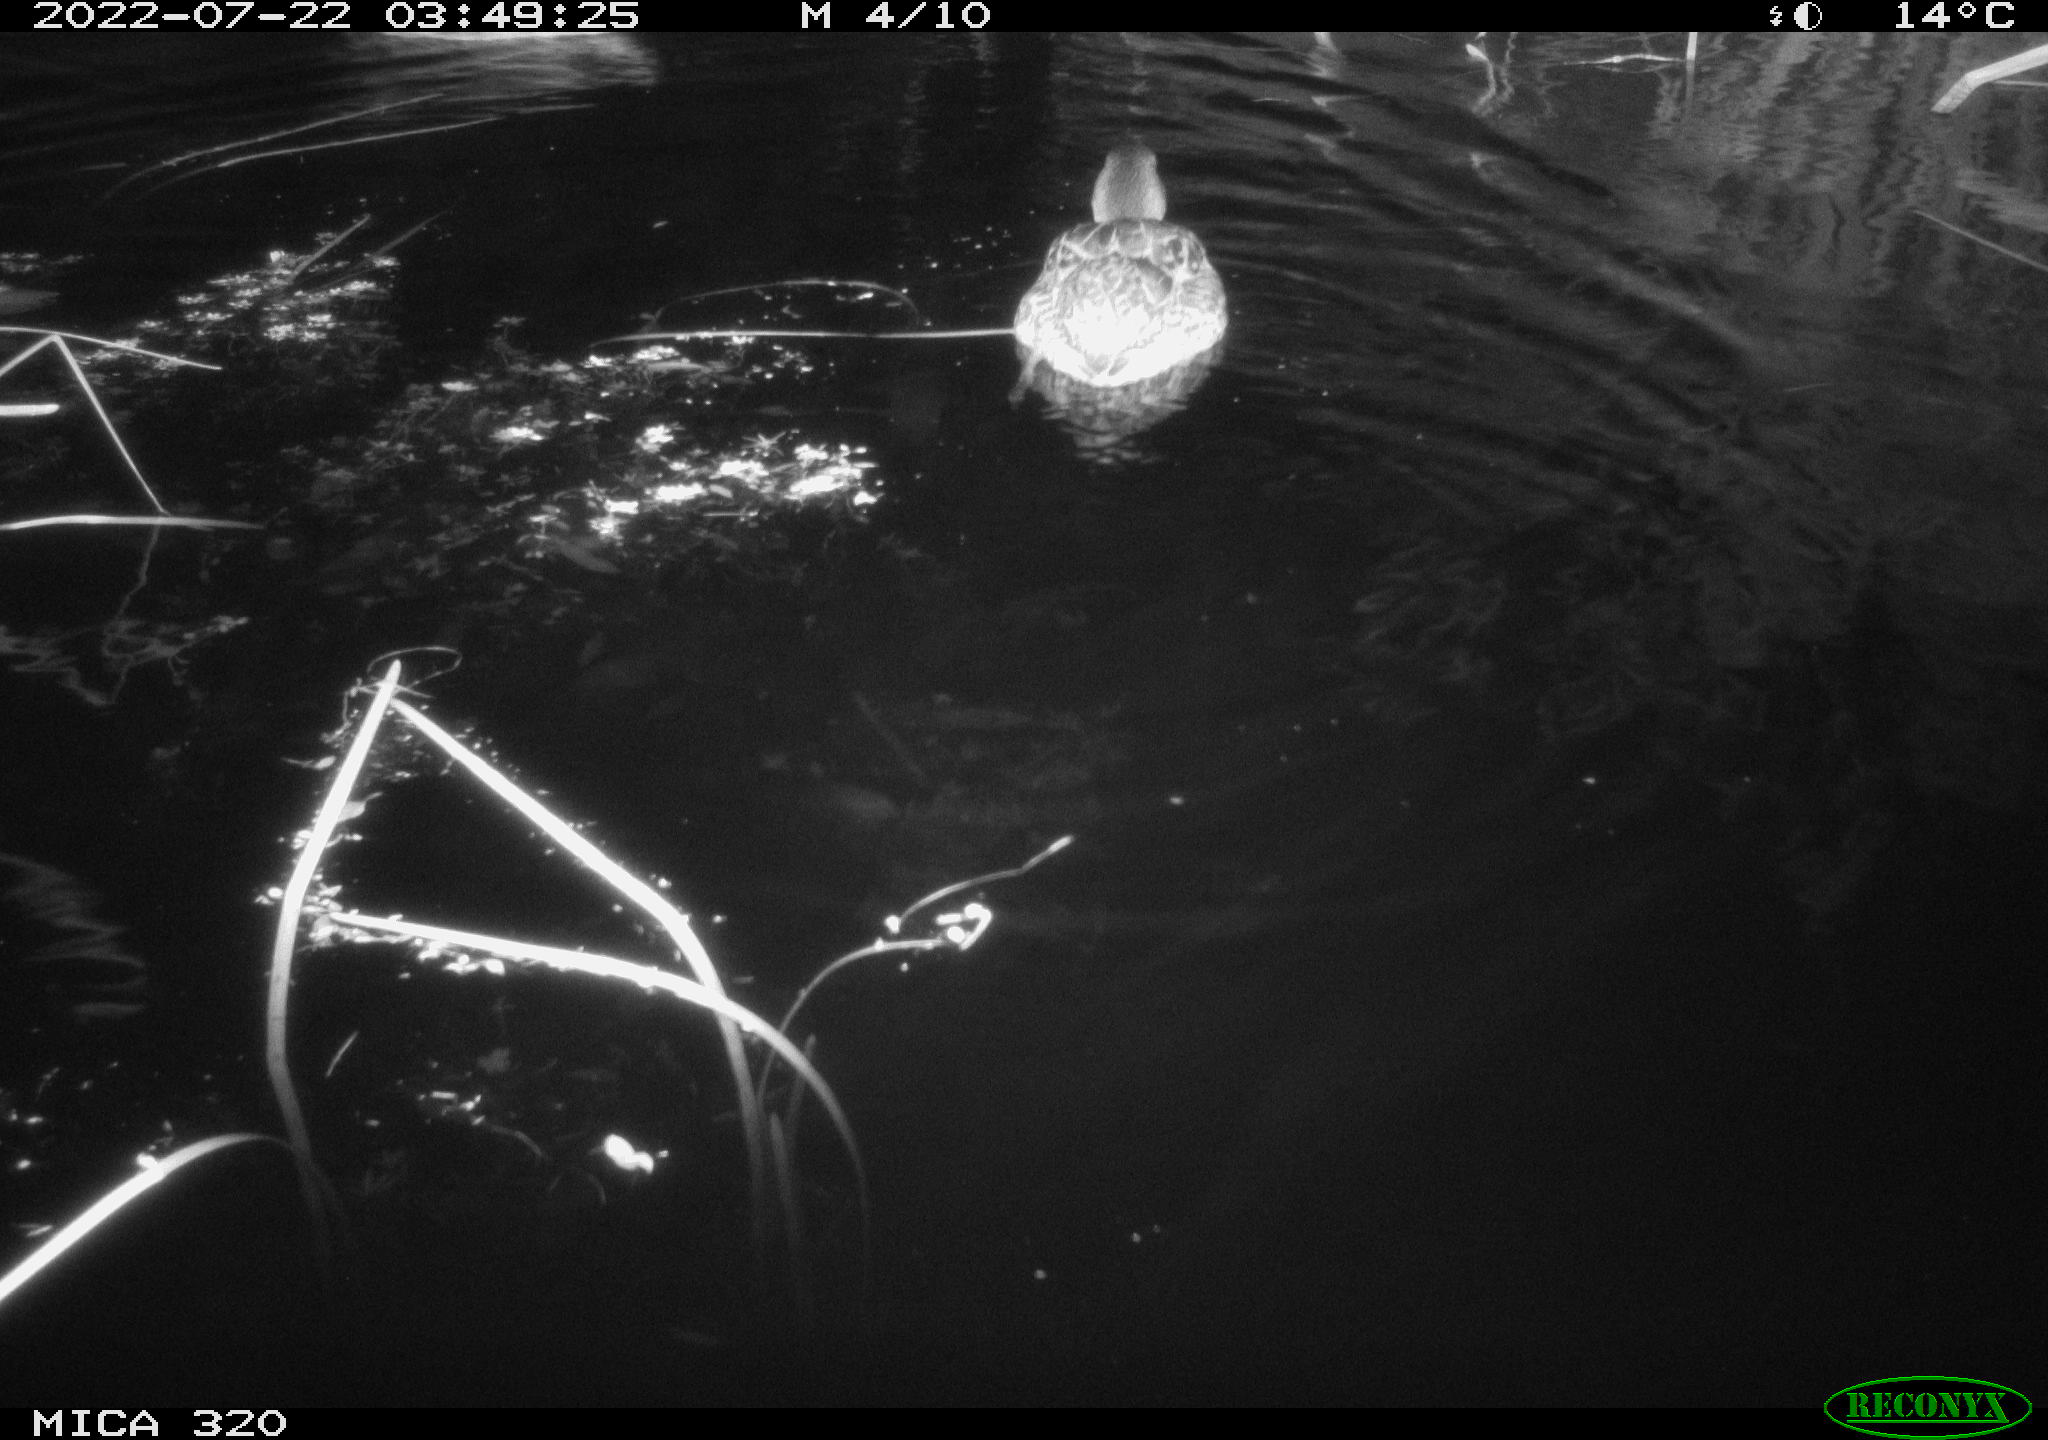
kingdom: Animalia
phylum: Chordata
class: Aves
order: Anseriformes
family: Anatidae
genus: Mareca
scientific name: Mareca strepera
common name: Gadwall
